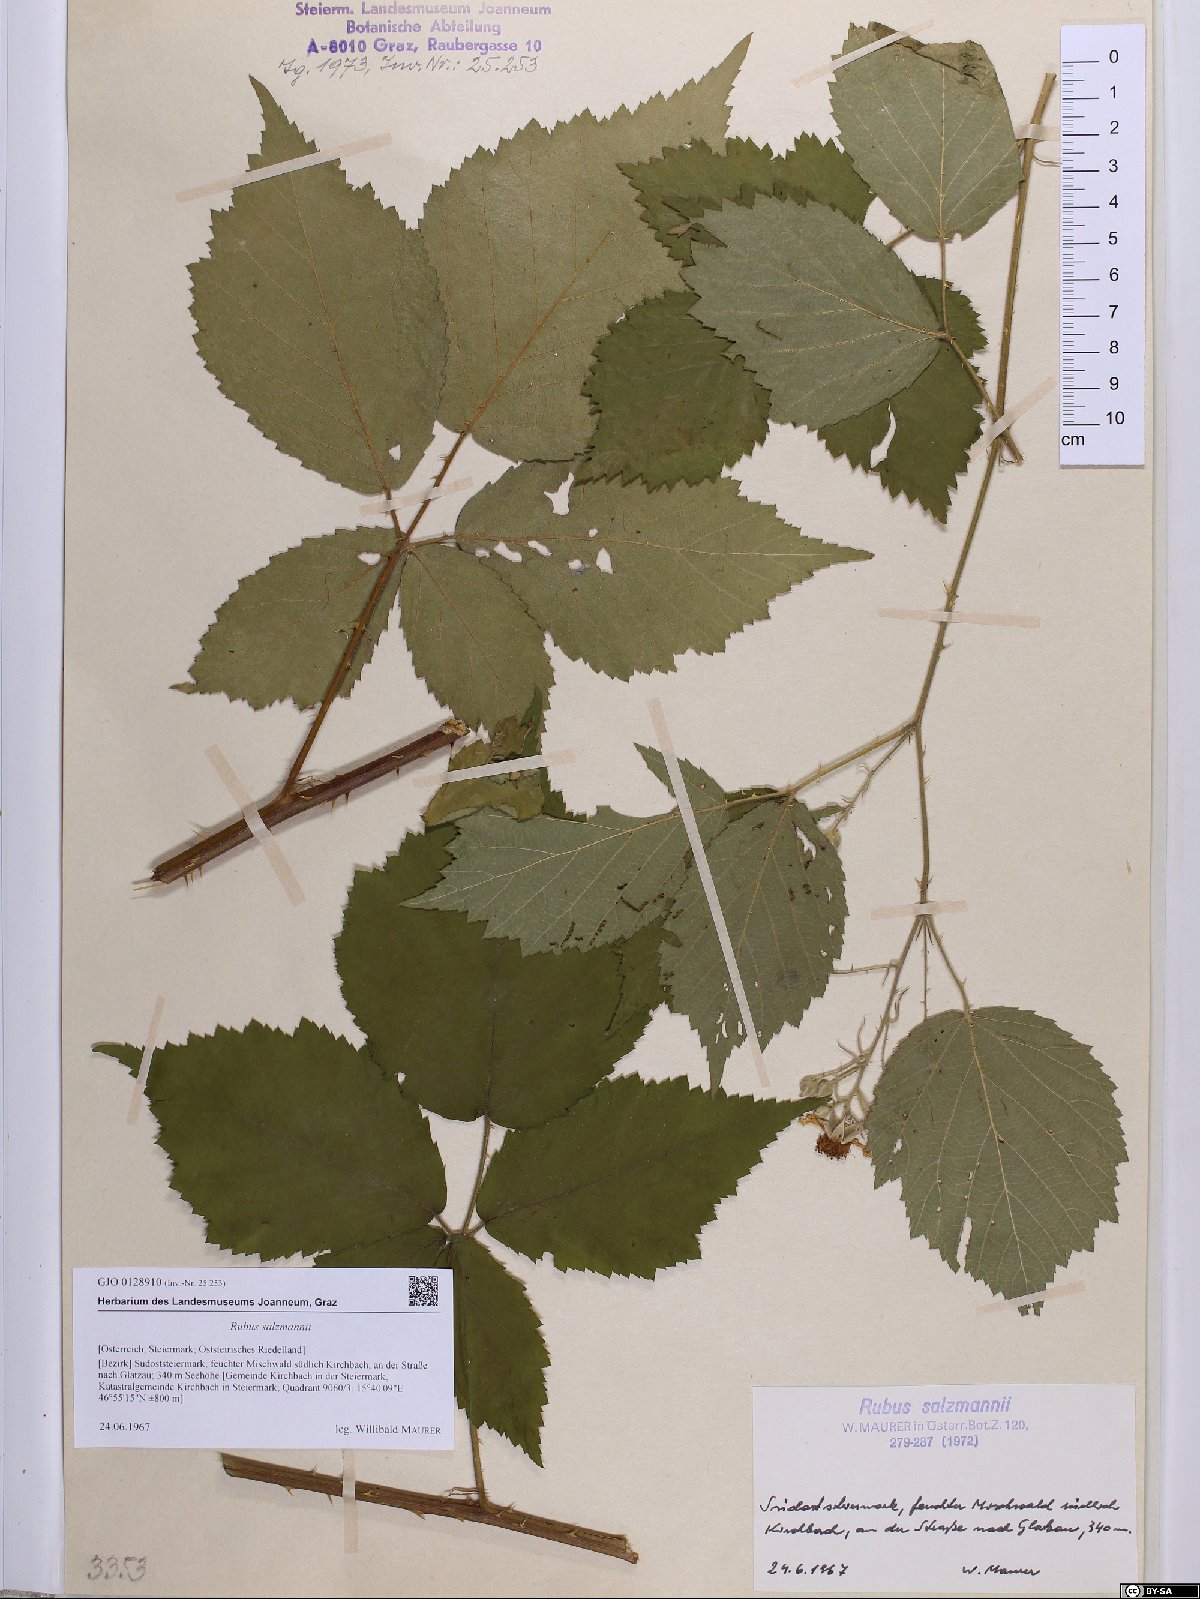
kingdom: Plantae
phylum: Tracheophyta
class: Magnoliopsida
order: Rosales
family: Rosaceae
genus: Rubus
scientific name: Rubus salzmannii
